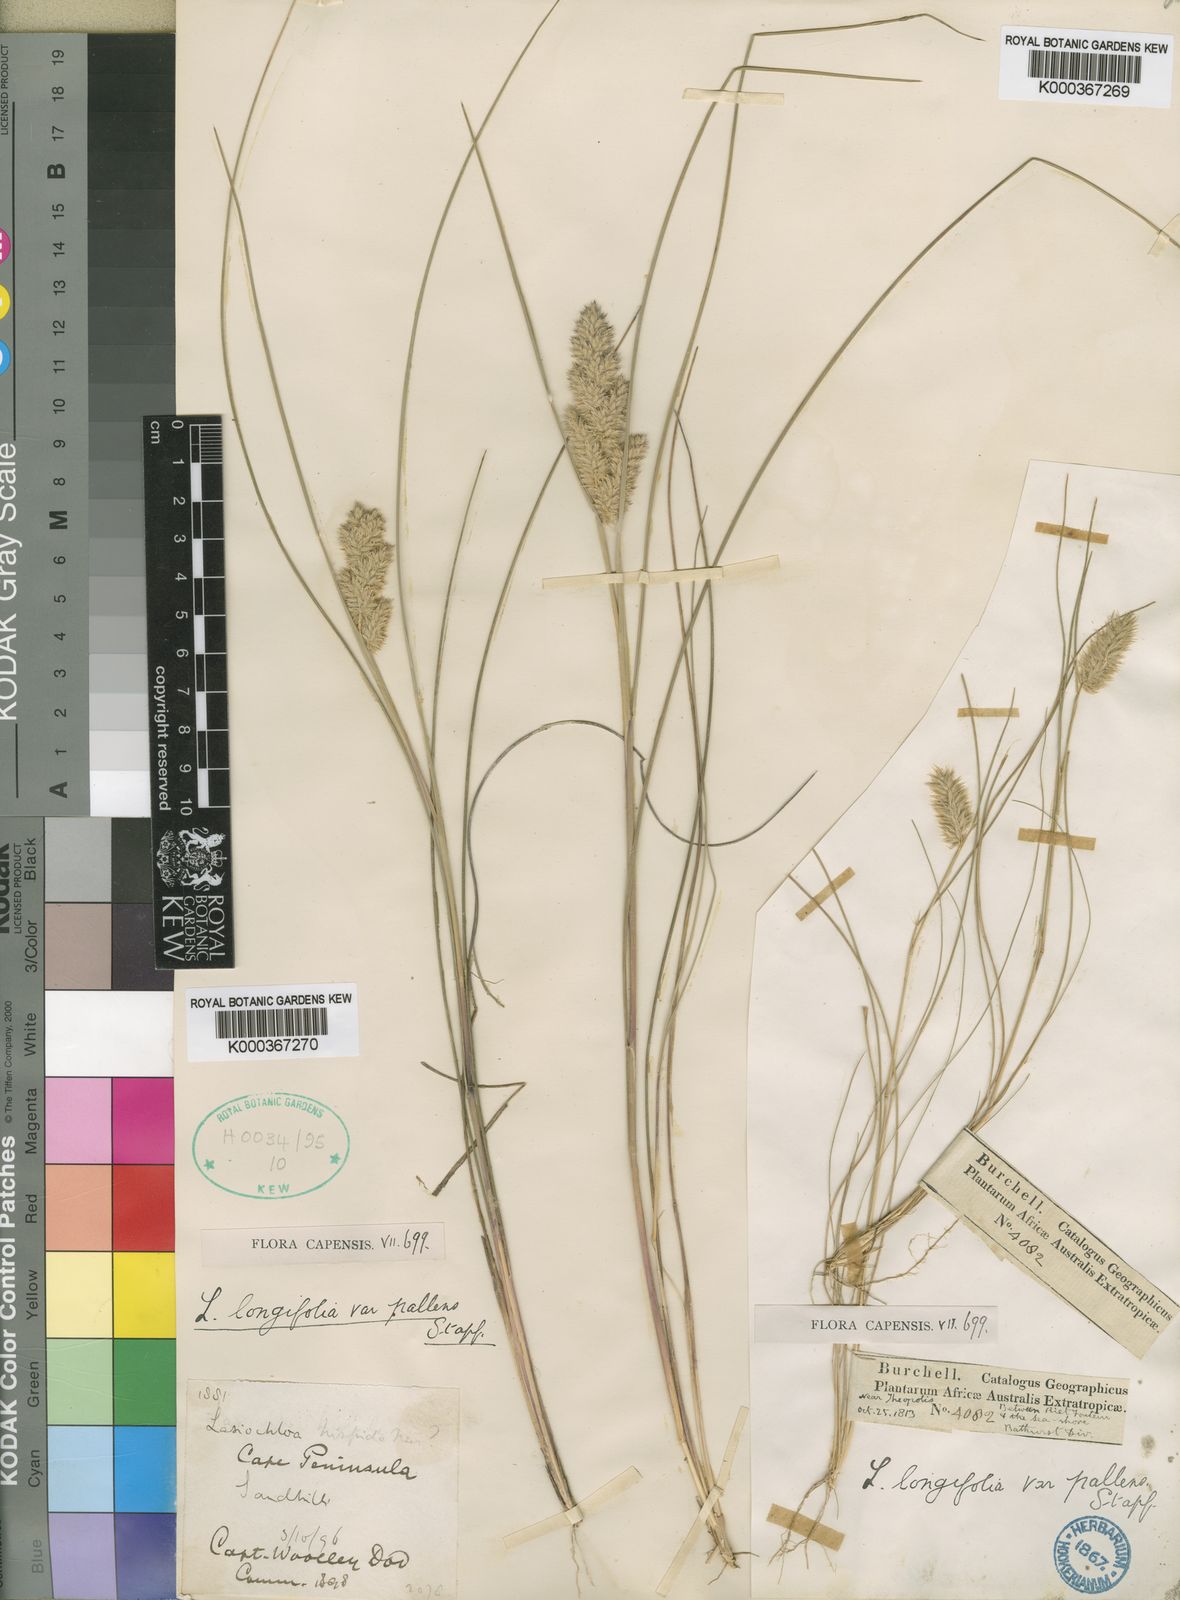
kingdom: Plantae
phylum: Tracheophyta
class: Liliopsida
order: Poales
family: Poaceae
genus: Tribolium
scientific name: Tribolium hispidum
